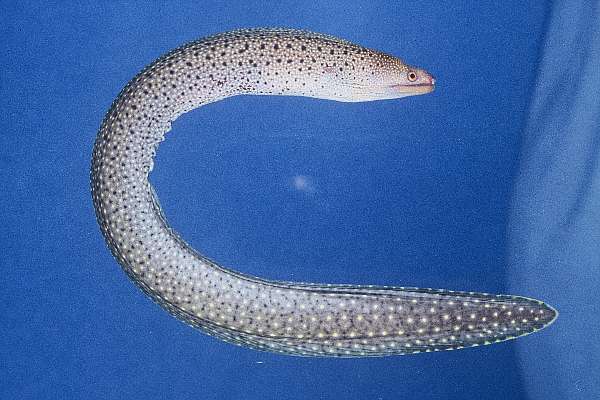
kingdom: Animalia
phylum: Chordata
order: Anguilliformes
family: Muraenidae
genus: Gymnothorax
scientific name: Gymnothorax eurostus
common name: Stout moray
